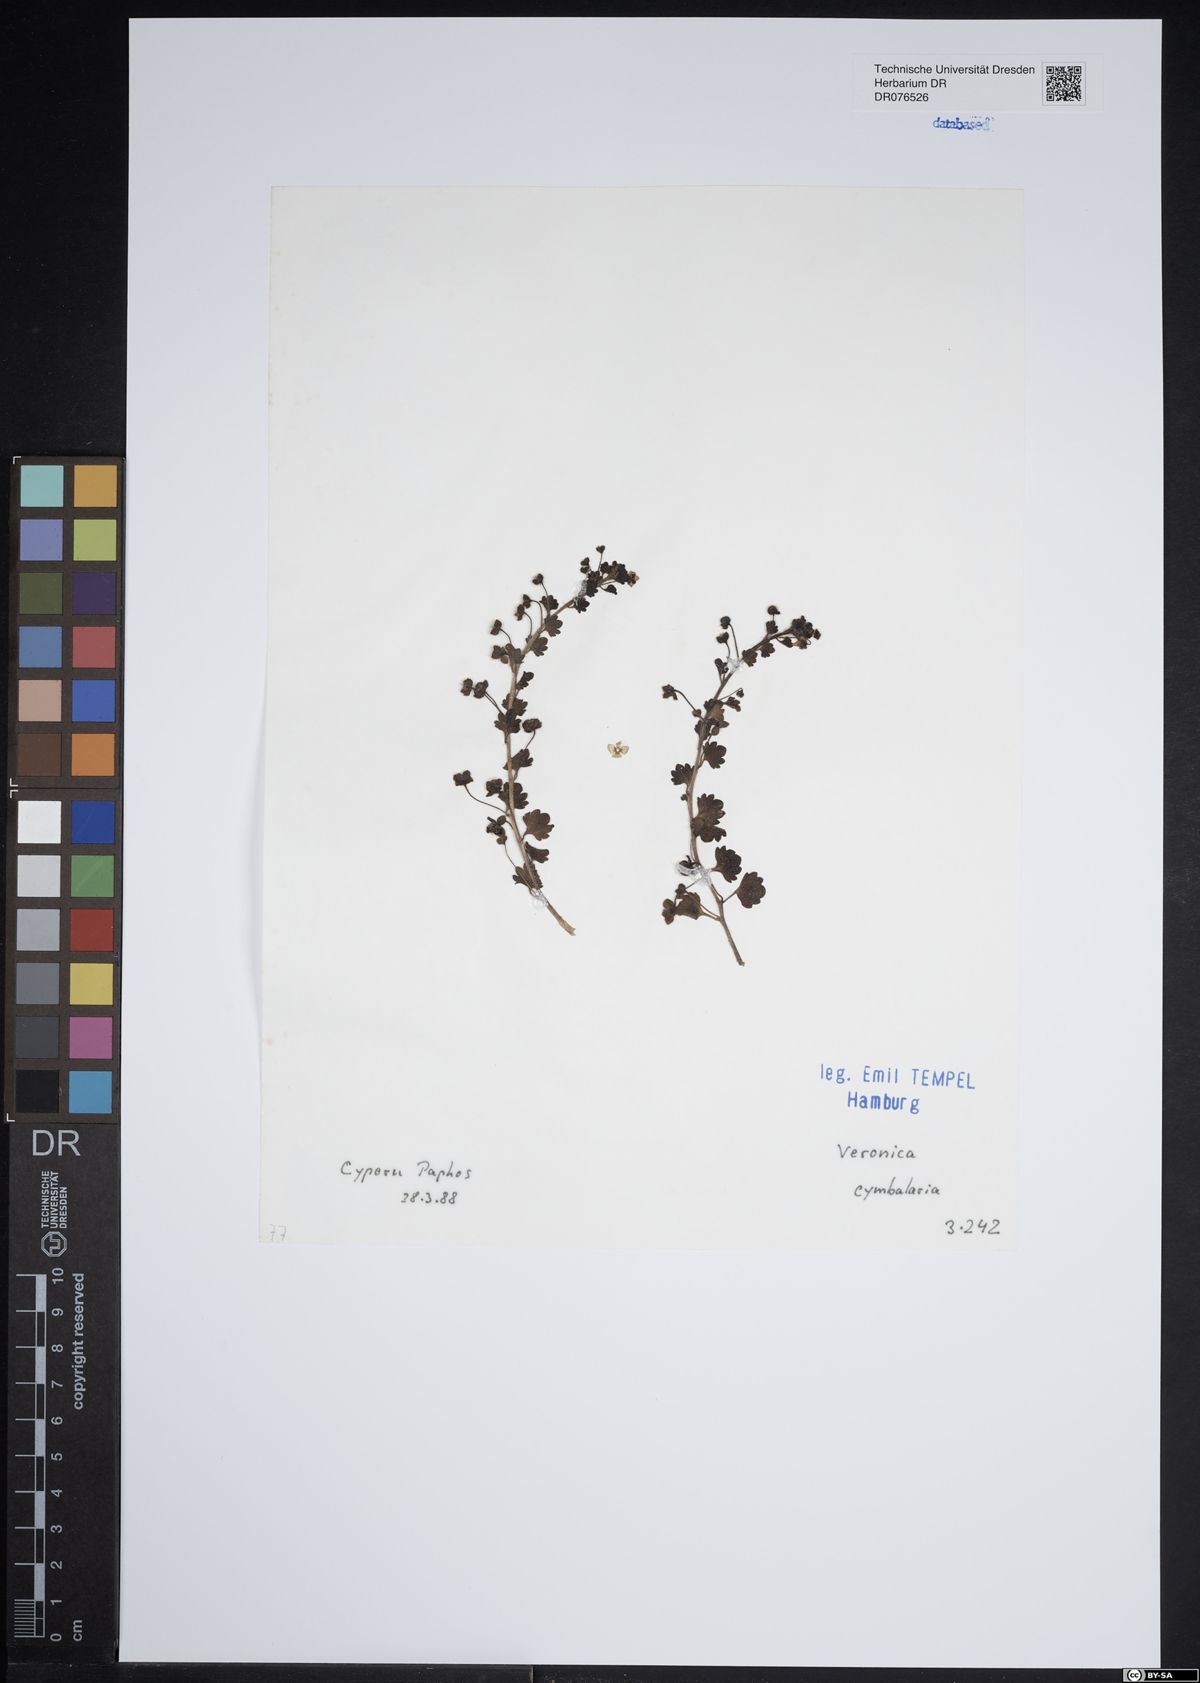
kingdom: Plantae
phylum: Tracheophyta
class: Magnoliopsida
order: Lamiales
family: Plantaginaceae
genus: Veronica
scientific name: Veronica cymbalaria
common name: Pale speedwell
